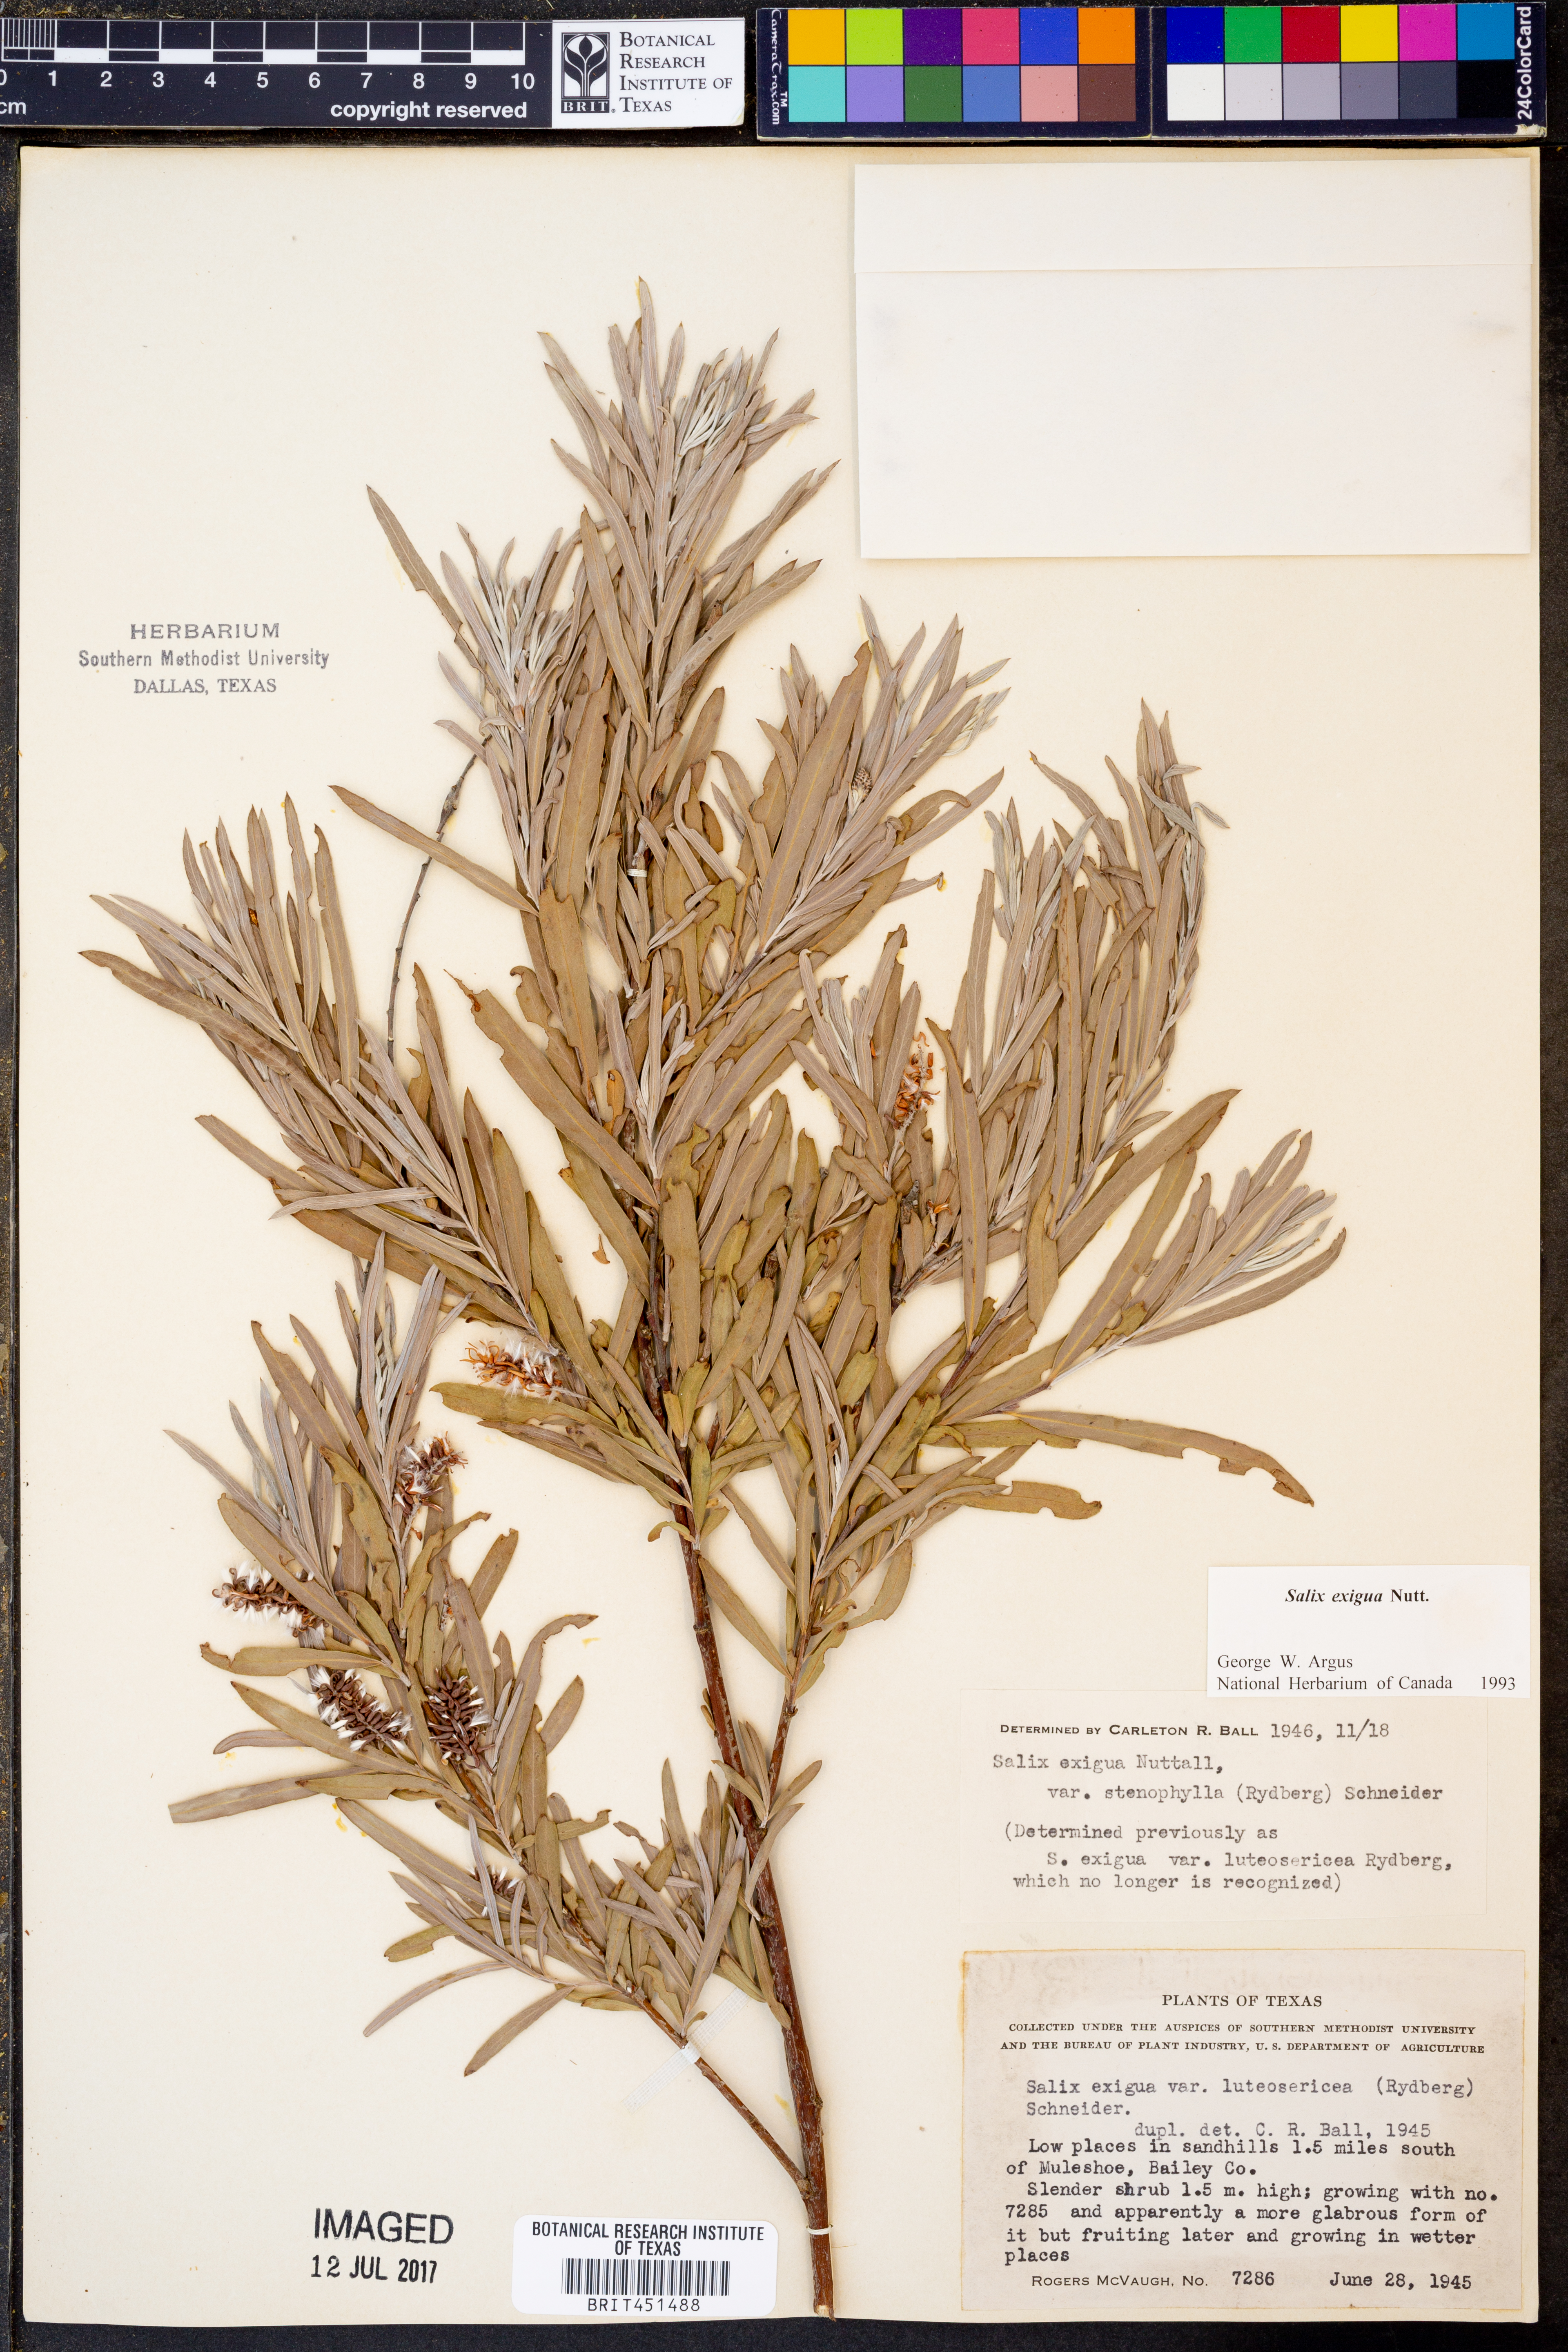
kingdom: Plantae
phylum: Tracheophyta
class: Magnoliopsida
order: Malpighiales
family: Salicaceae
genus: Salix
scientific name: Salix exigua
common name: Coyote willow
